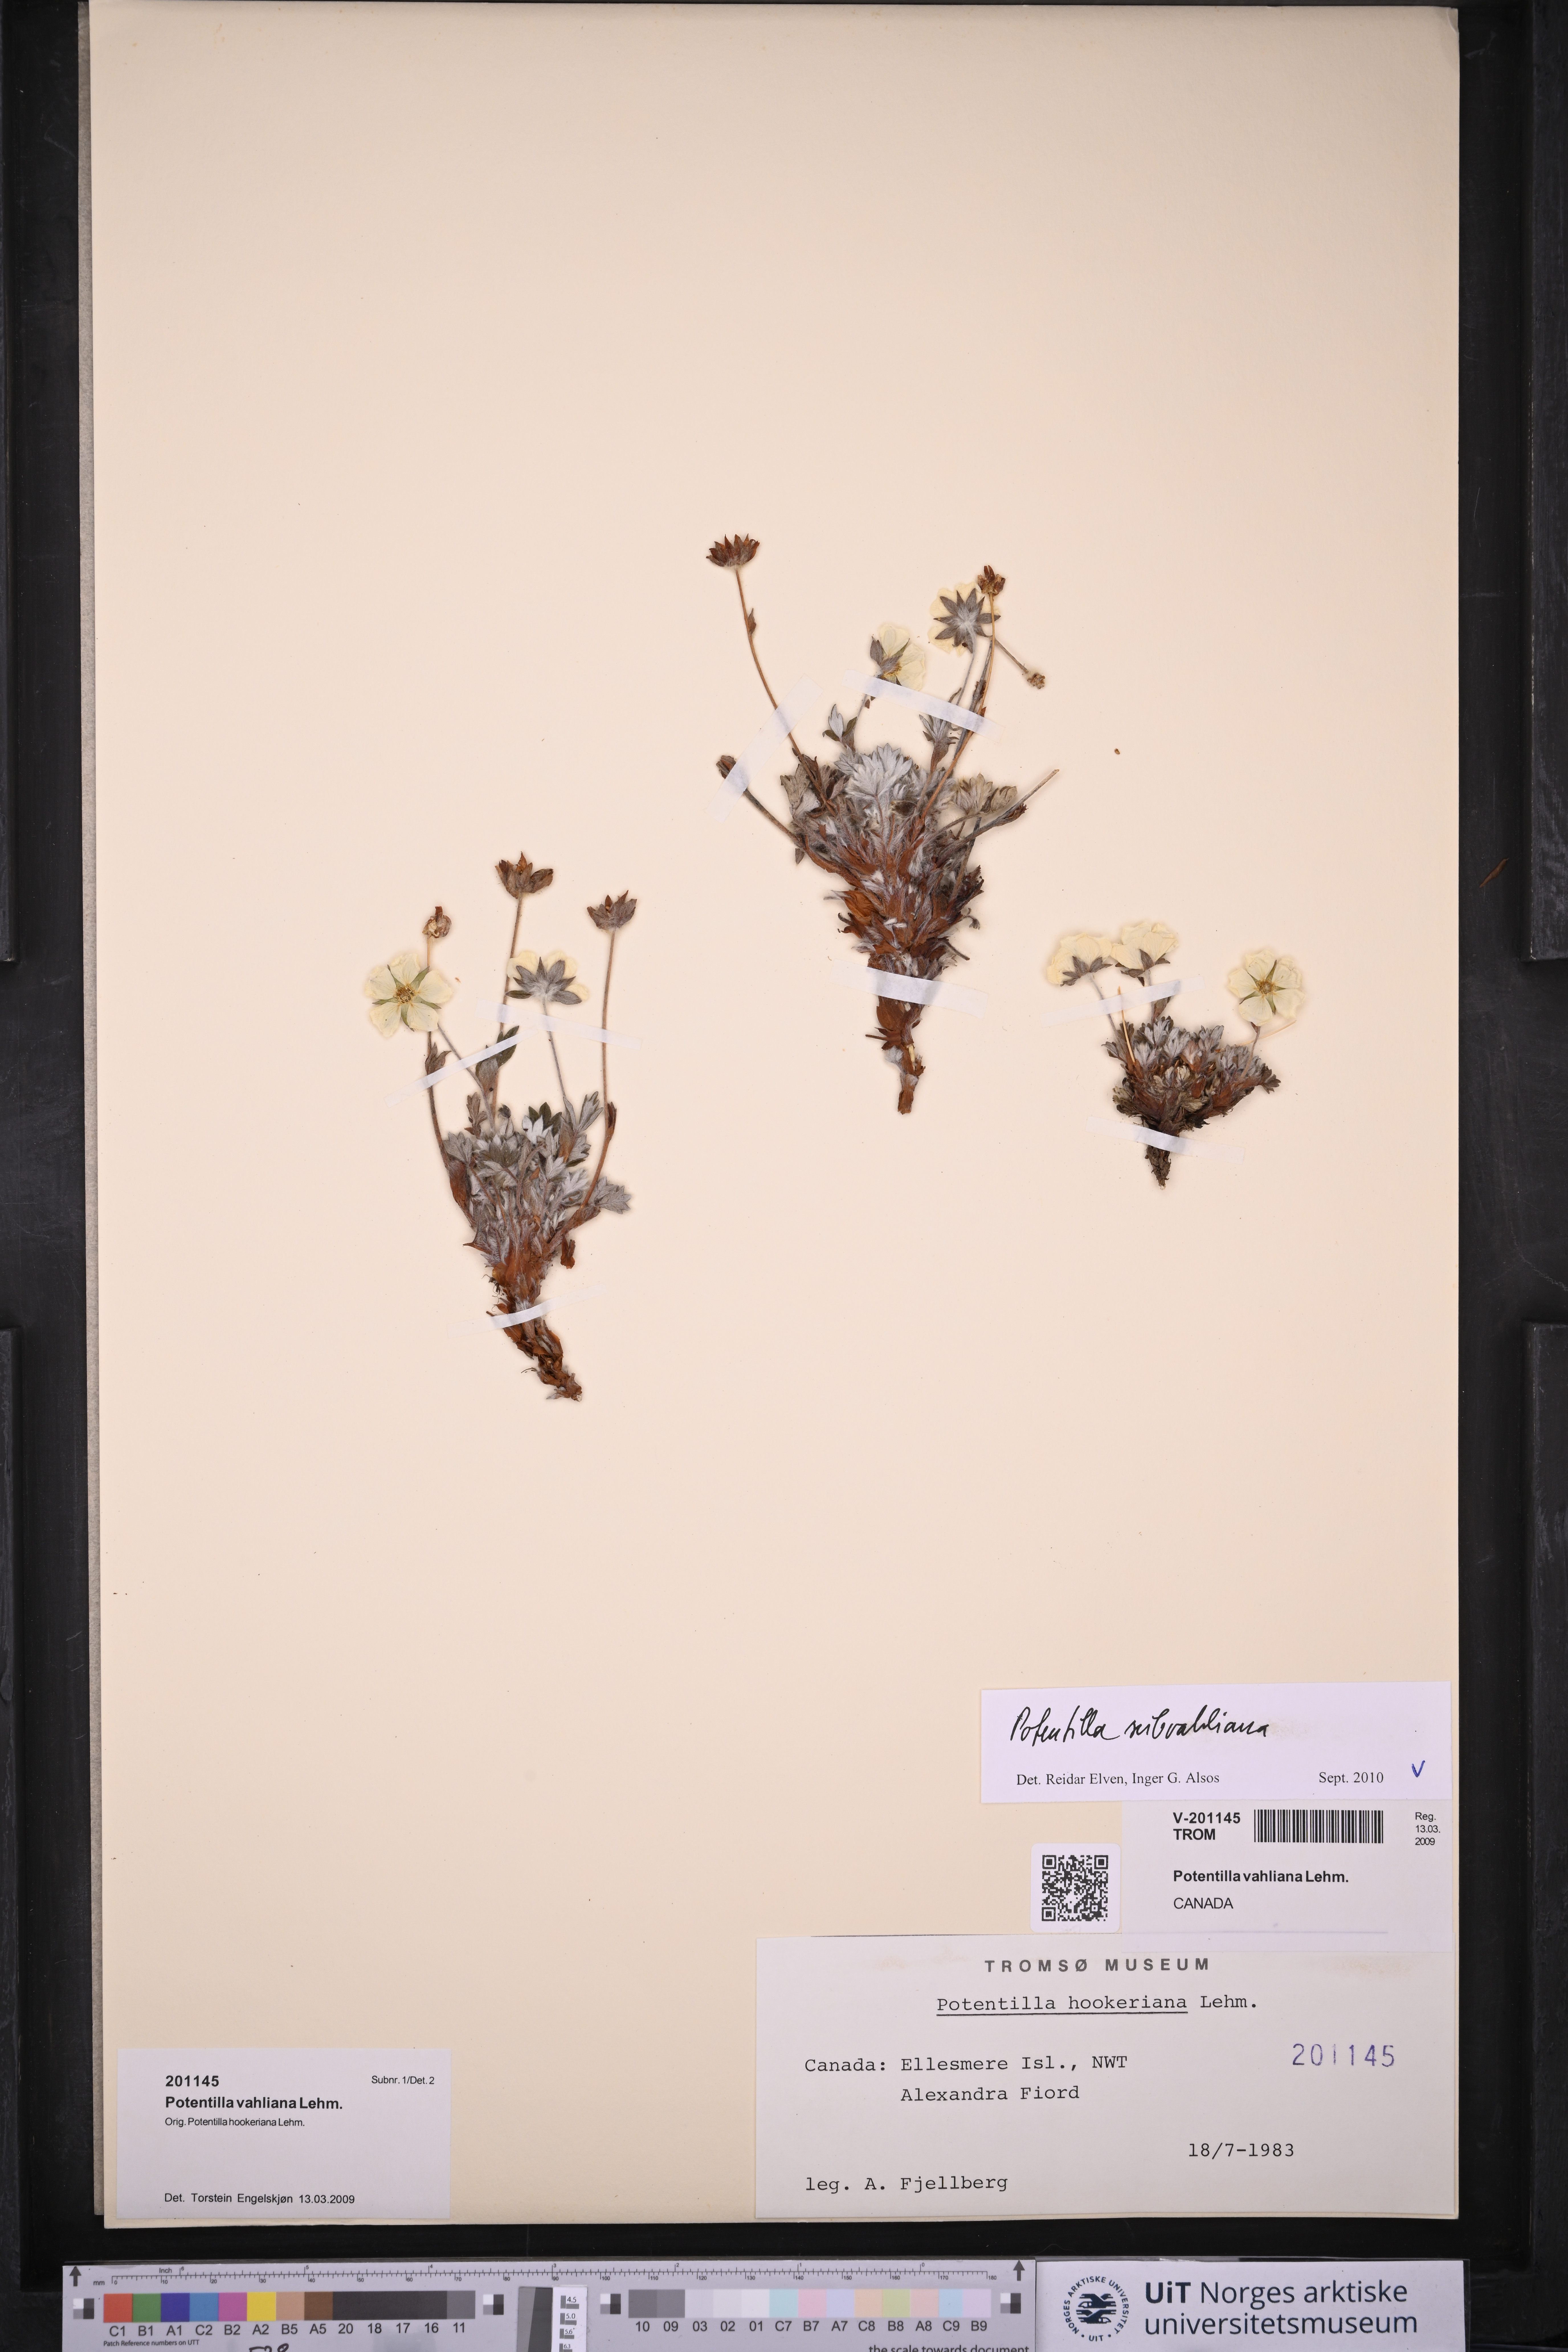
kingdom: Plantae
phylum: Tracheophyta
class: Magnoliopsida
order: Rosales
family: Rosaceae
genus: Potentilla
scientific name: Potentilla subvahliana
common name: Far northern cinquefoil
